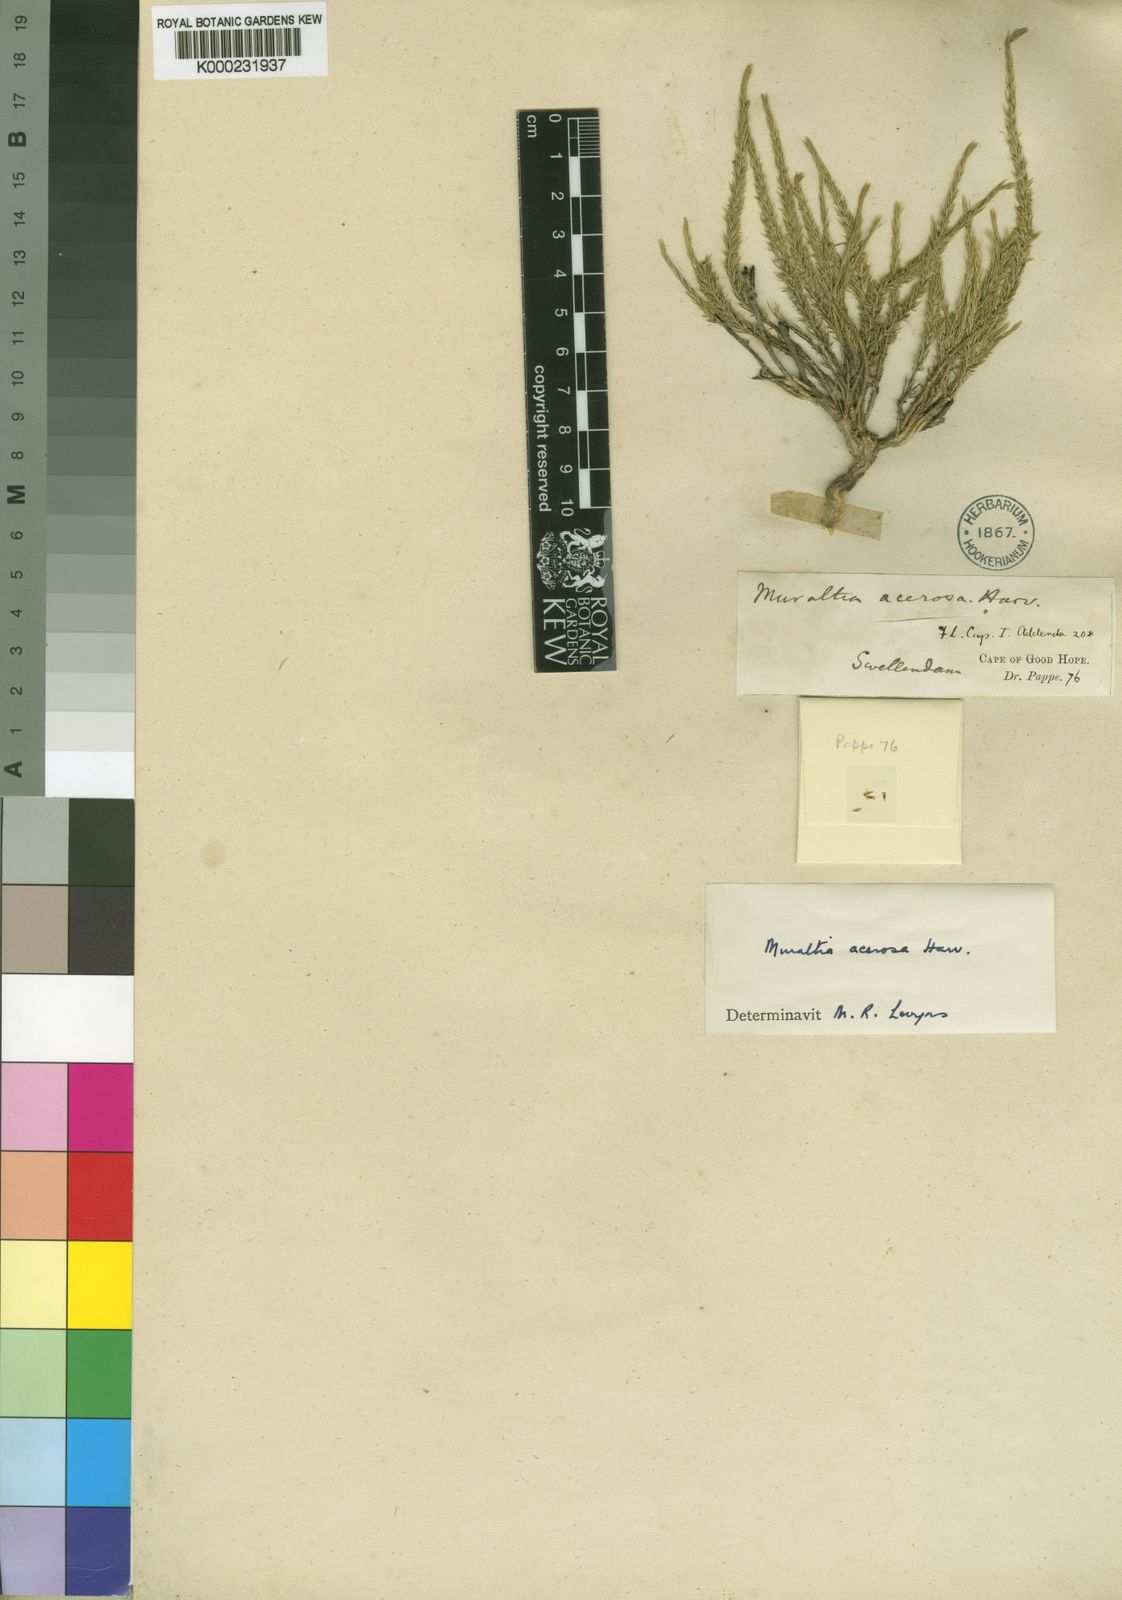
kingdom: Plantae
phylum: Tracheophyta
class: Magnoliopsida
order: Fabales
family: Polygalaceae
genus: Muraltia
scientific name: Muraltia acerosa
